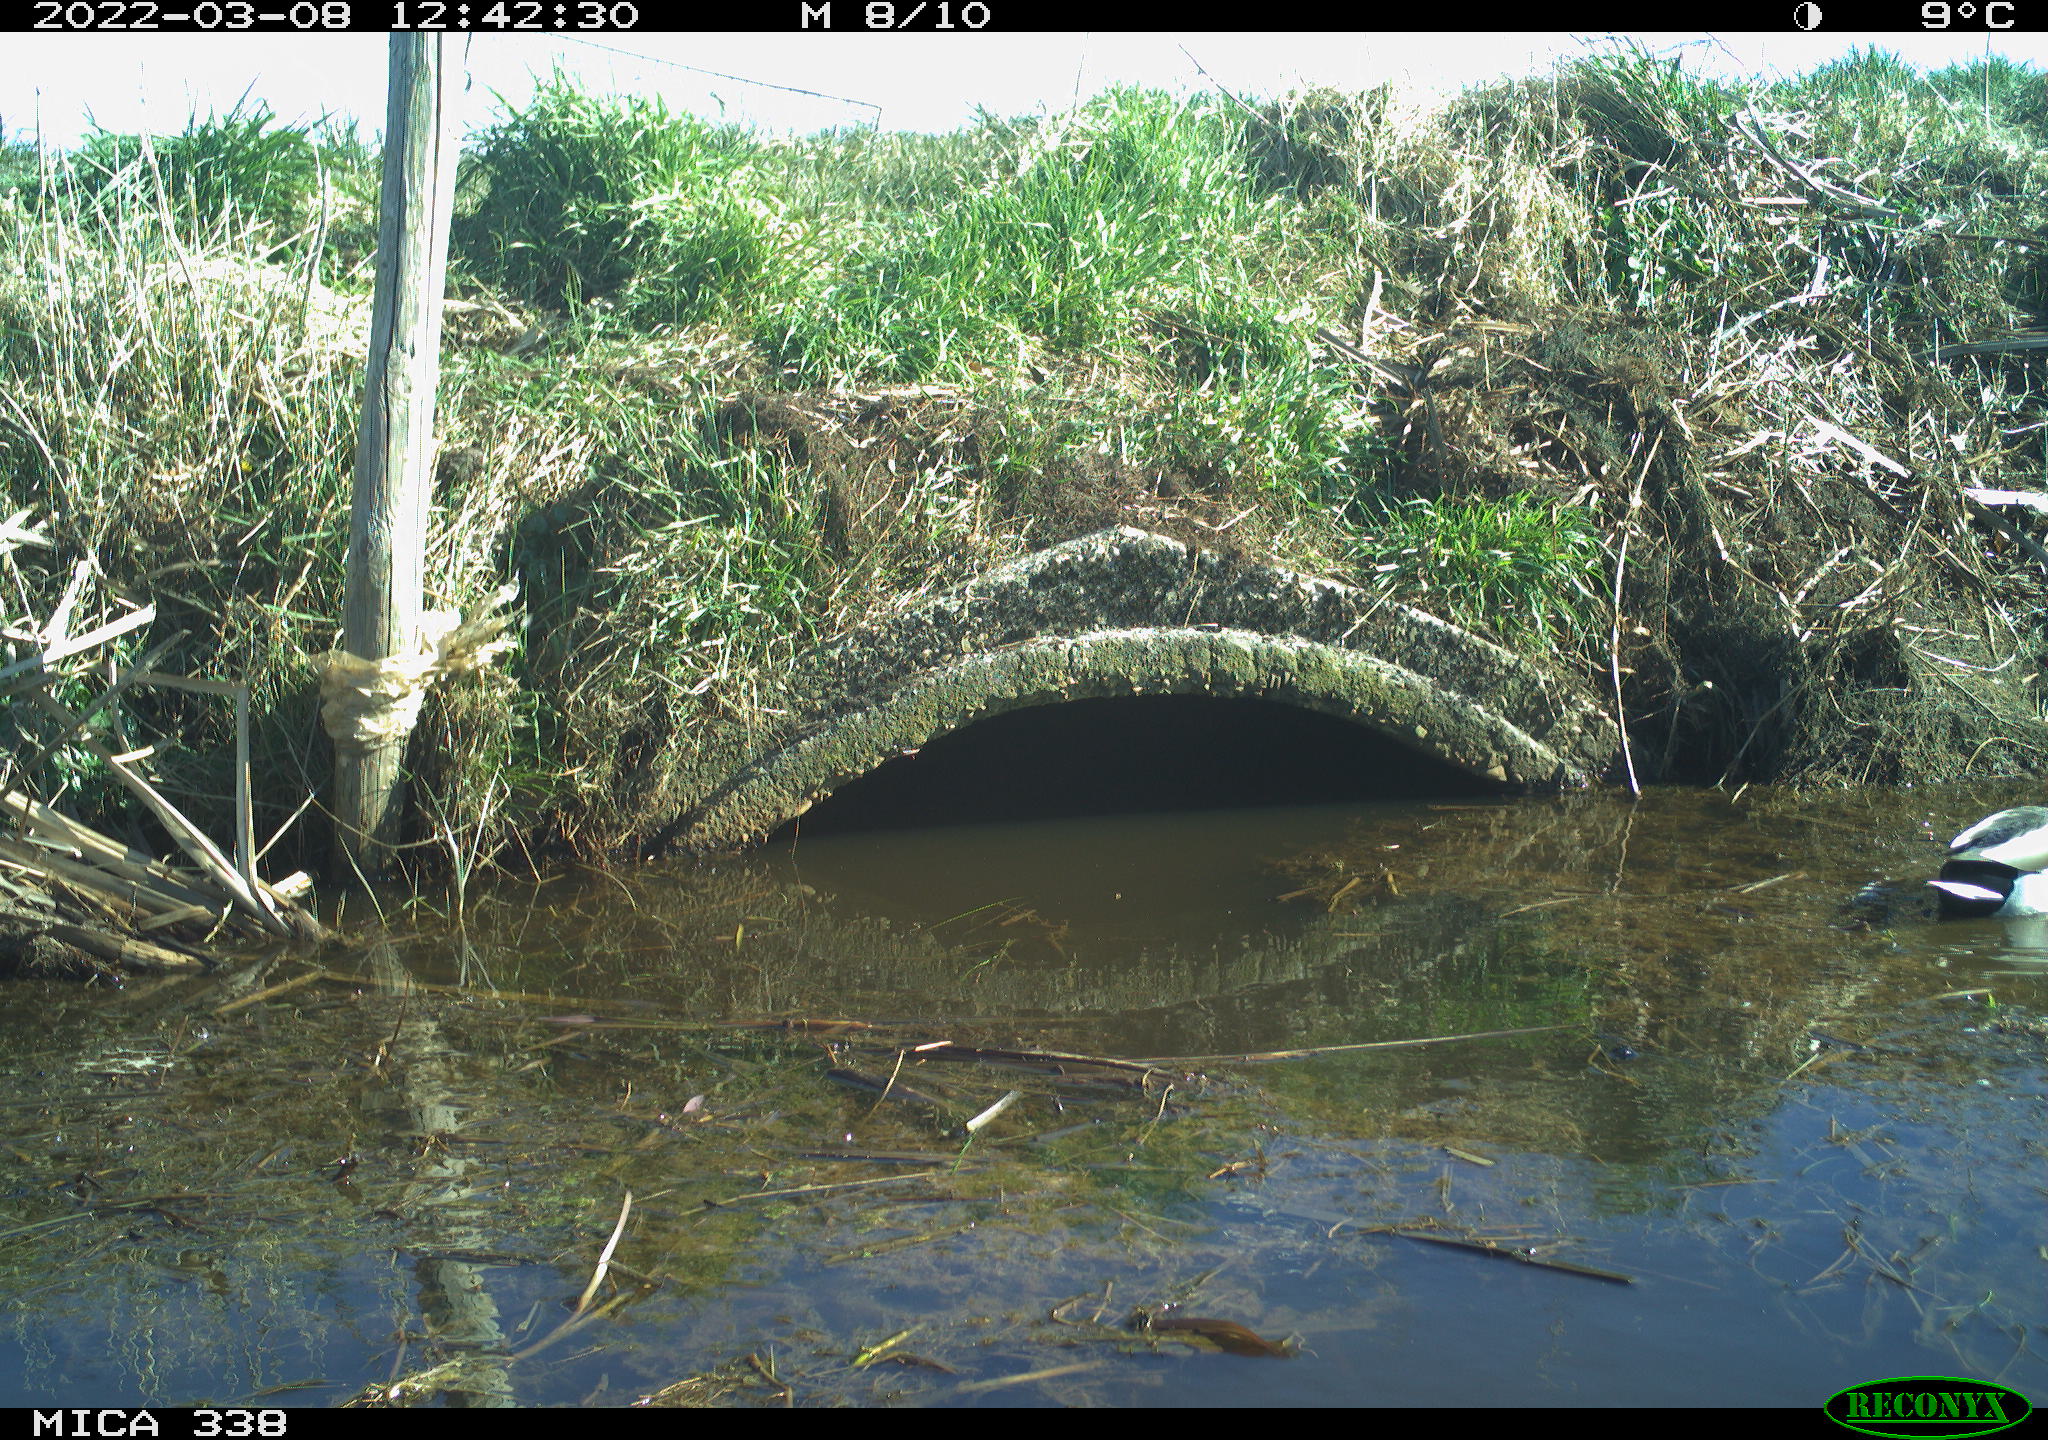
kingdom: Animalia
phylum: Chordata
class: Aves
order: Anseriformes
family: Anatidae
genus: Anas
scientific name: Anas platyrhynchos
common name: Mallard
